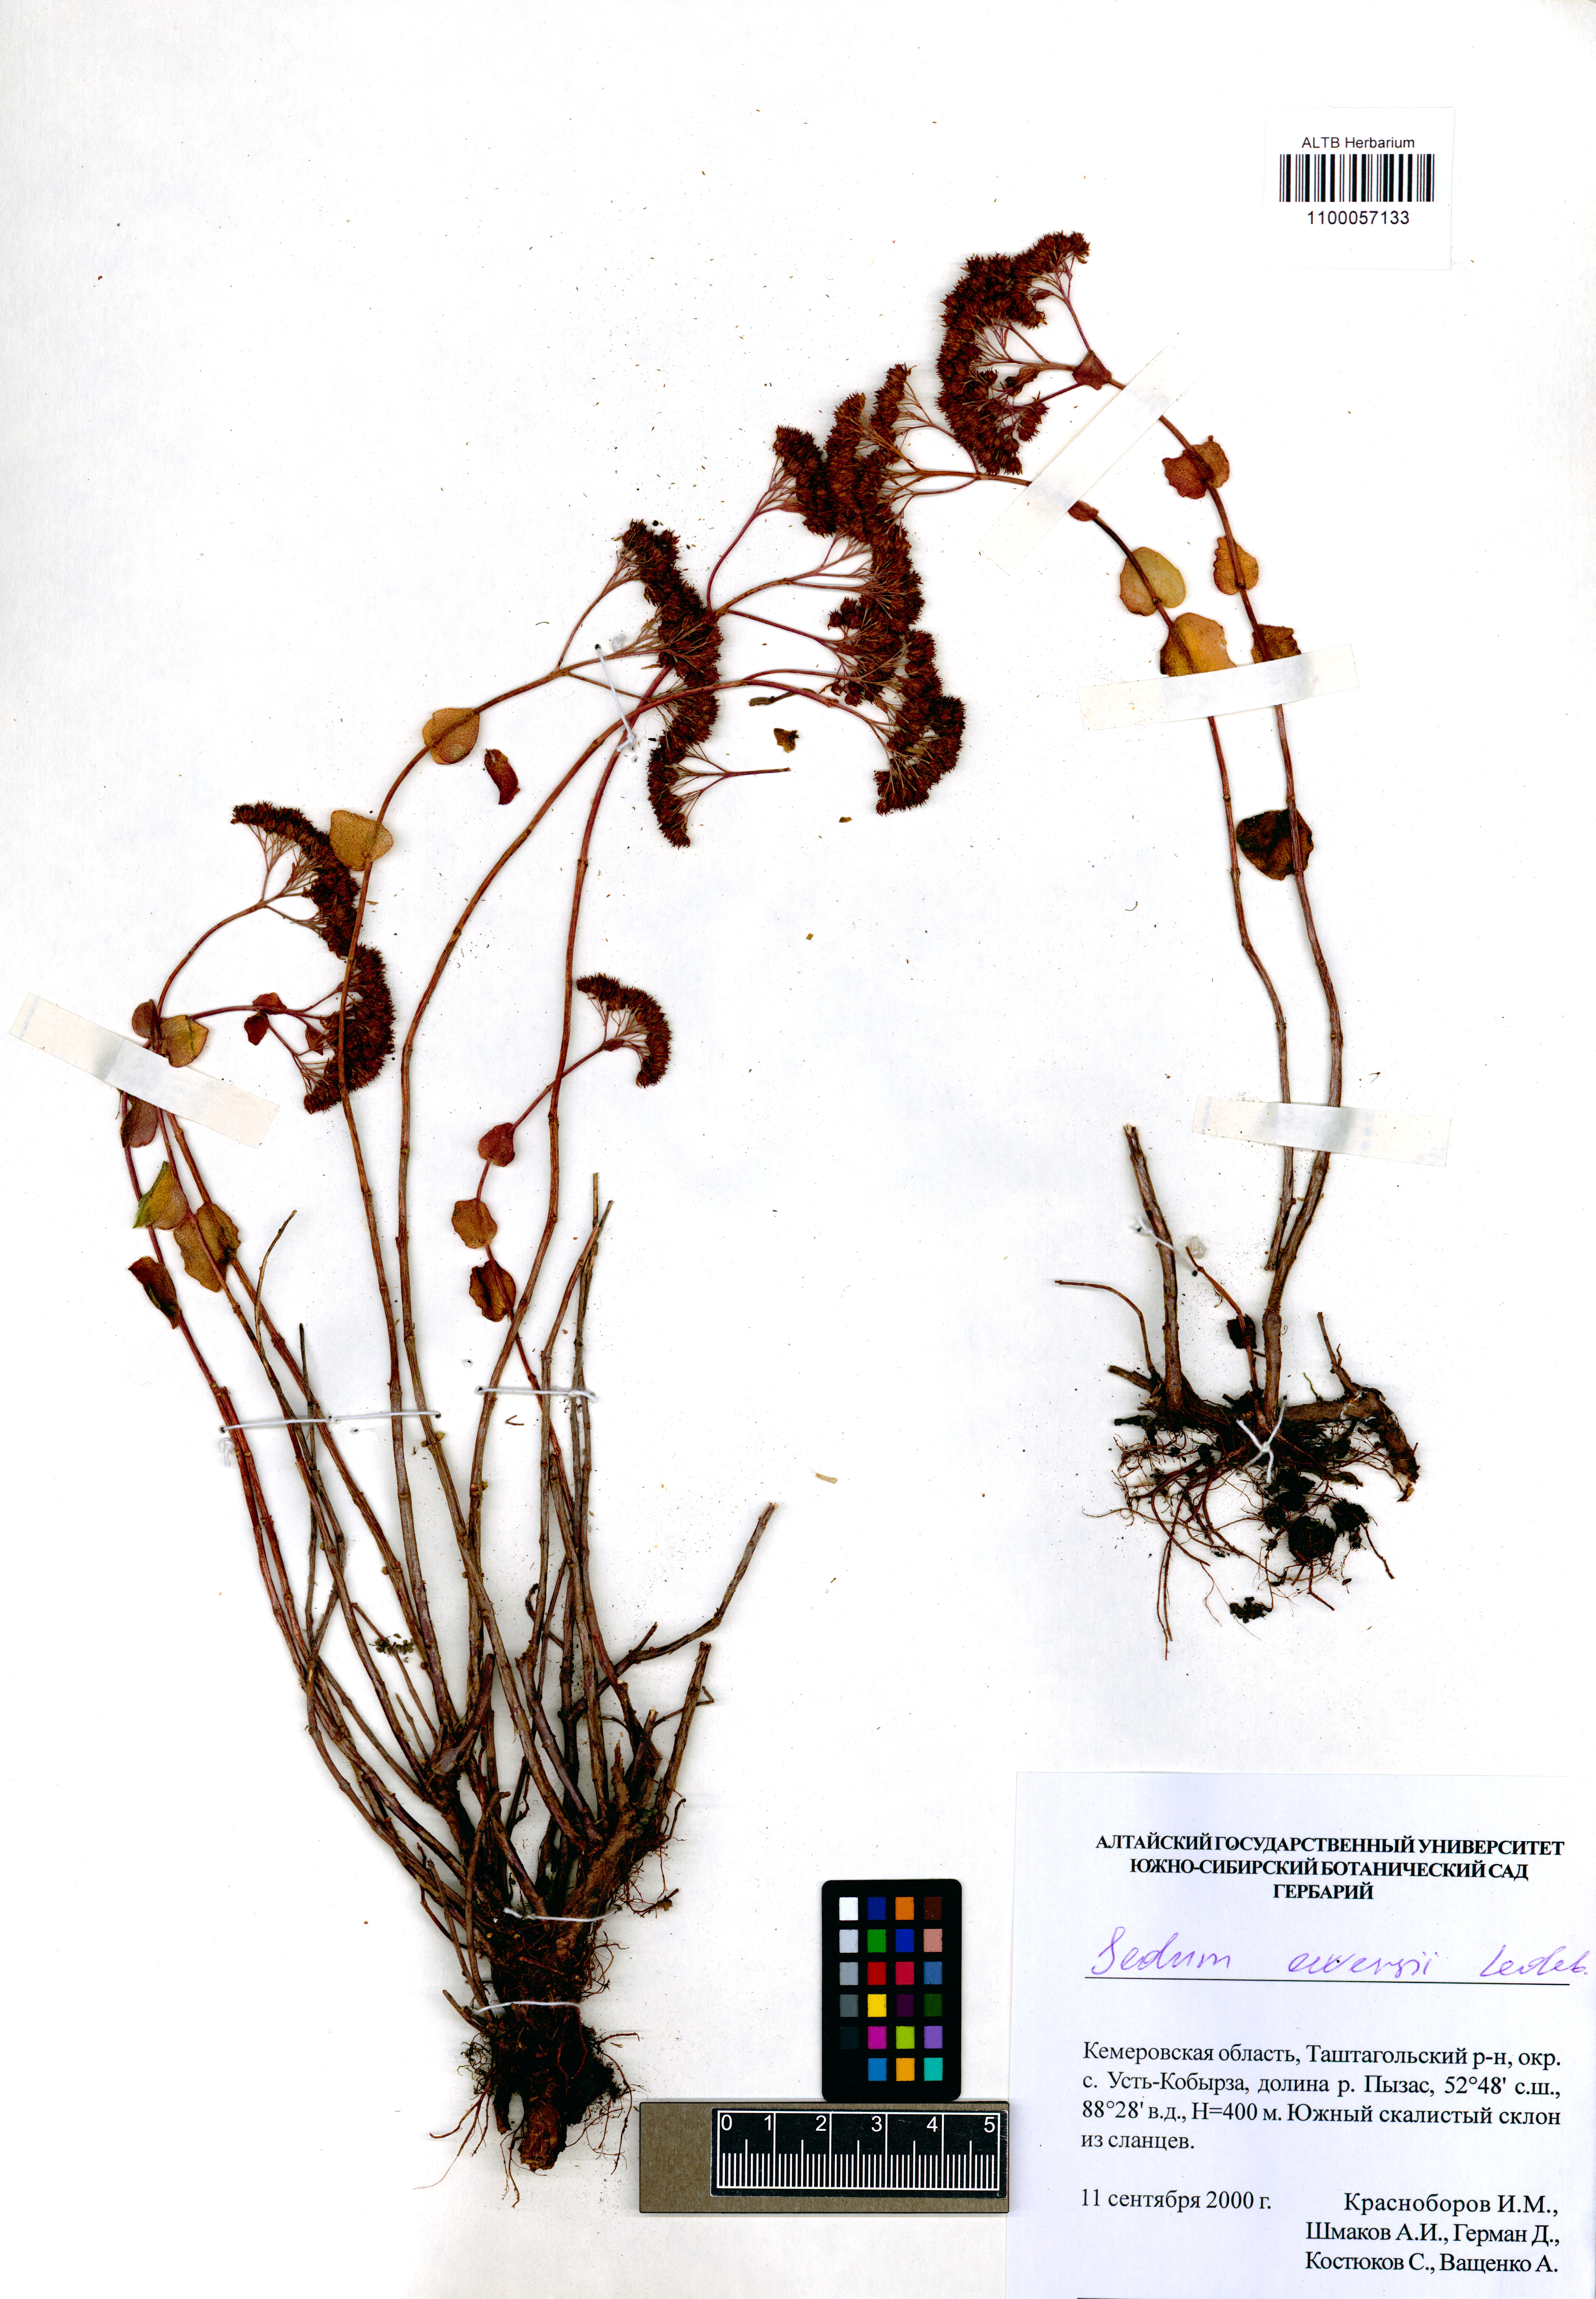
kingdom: Plantae
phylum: Tracheophyta
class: Magnoliopsida
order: Saxifragales
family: Crassulaceae
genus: Hylotelephium
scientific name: Hylotelephium ewersii
